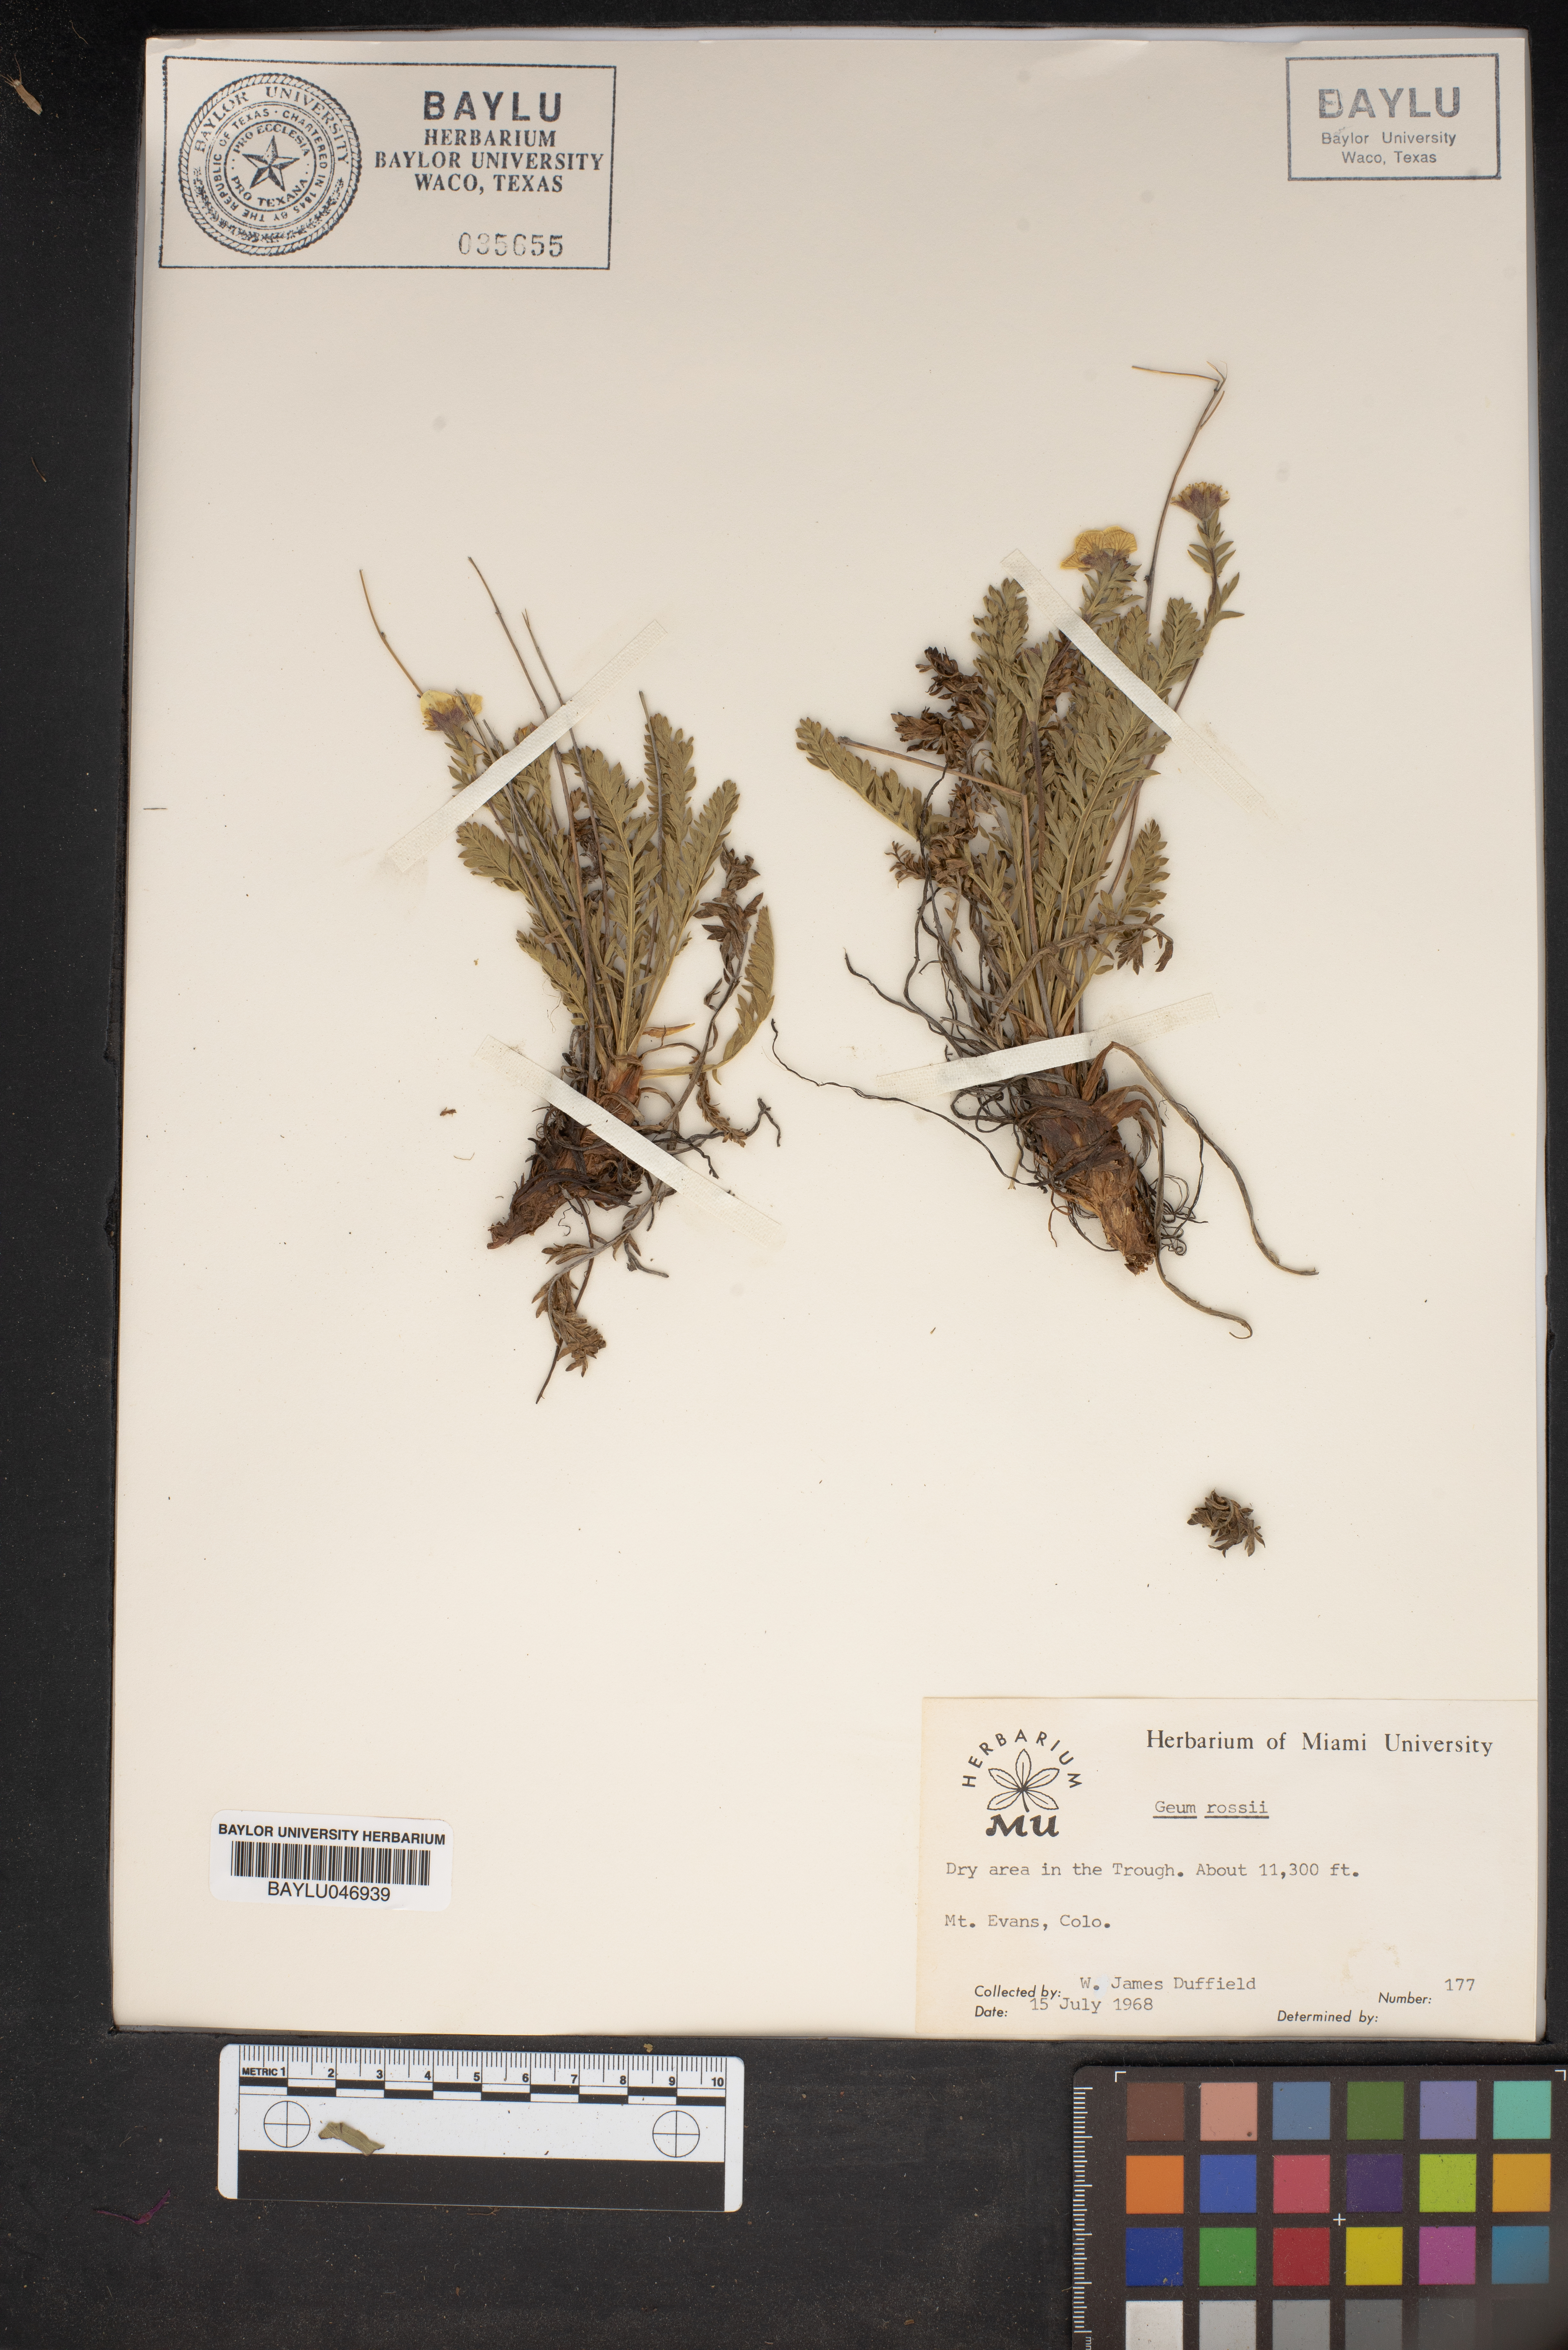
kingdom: Plantae
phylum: Tracheophyta
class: Magnoliopsida
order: Rosales
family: Rosaceae
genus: Geum
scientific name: Geum rossii
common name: Alpine avens
